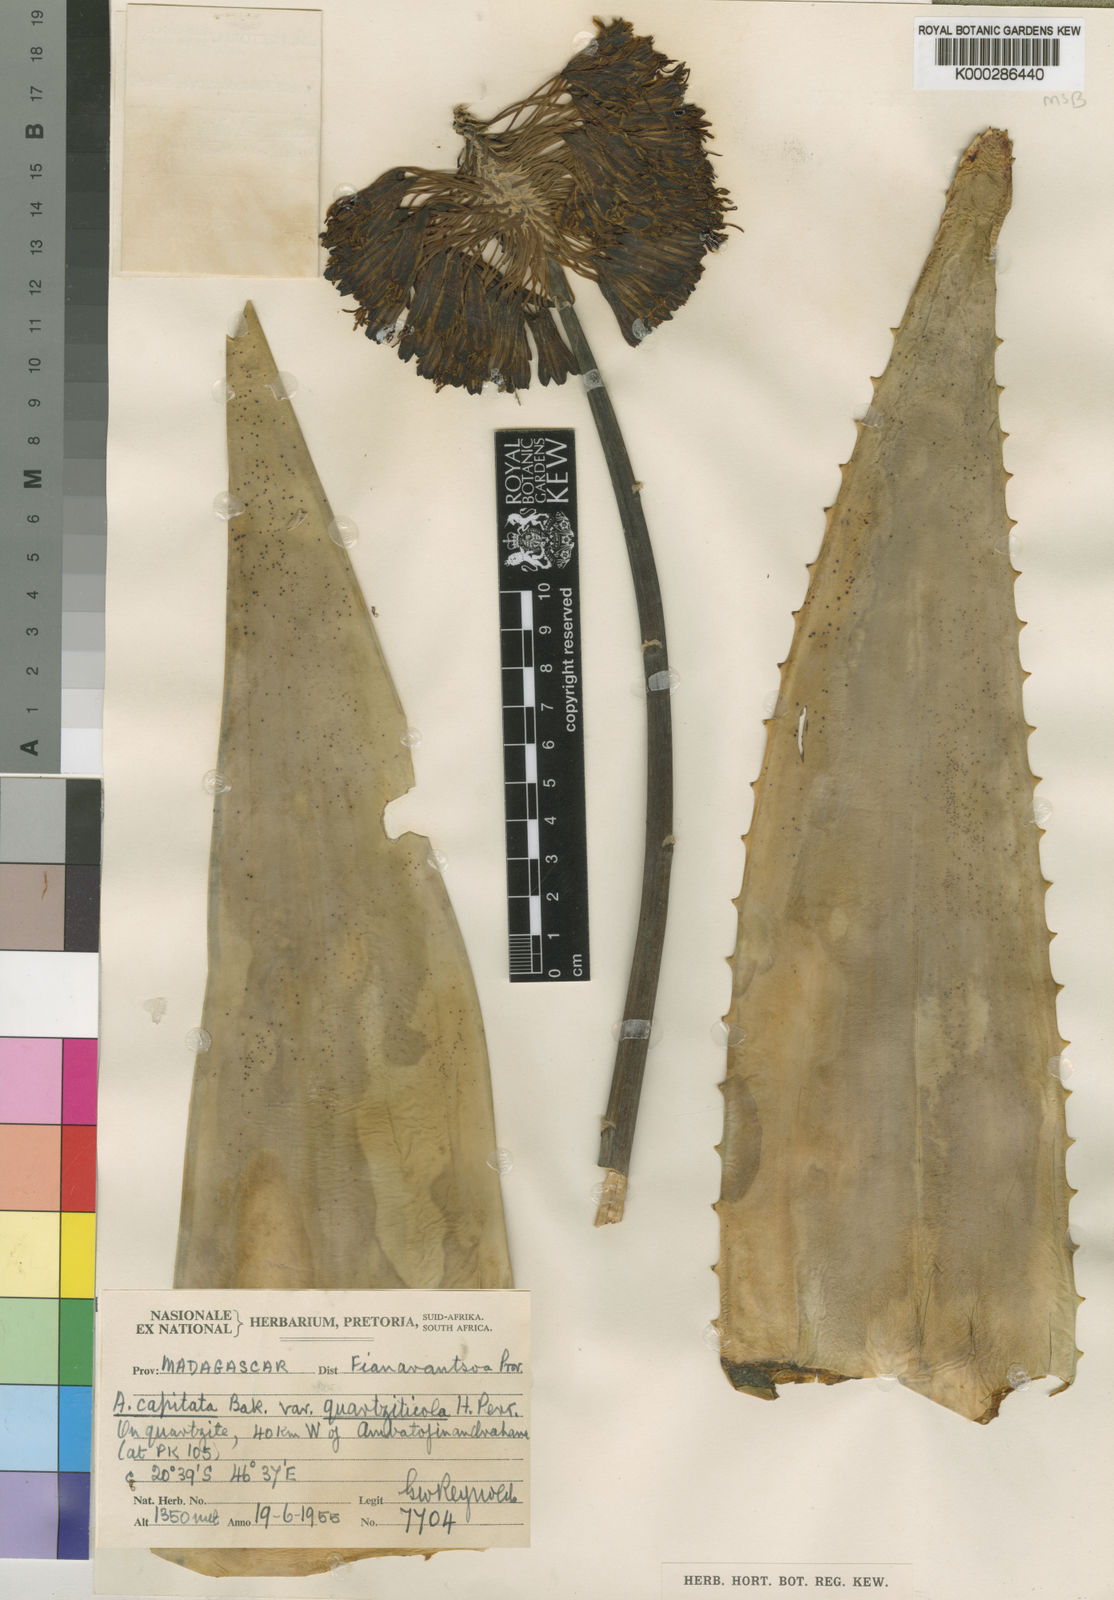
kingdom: Plantae
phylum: Tracheophyta
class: Liliopsida
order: Asparagales
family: Asphodelaceae
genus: Aloe
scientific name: Aloe capitata
